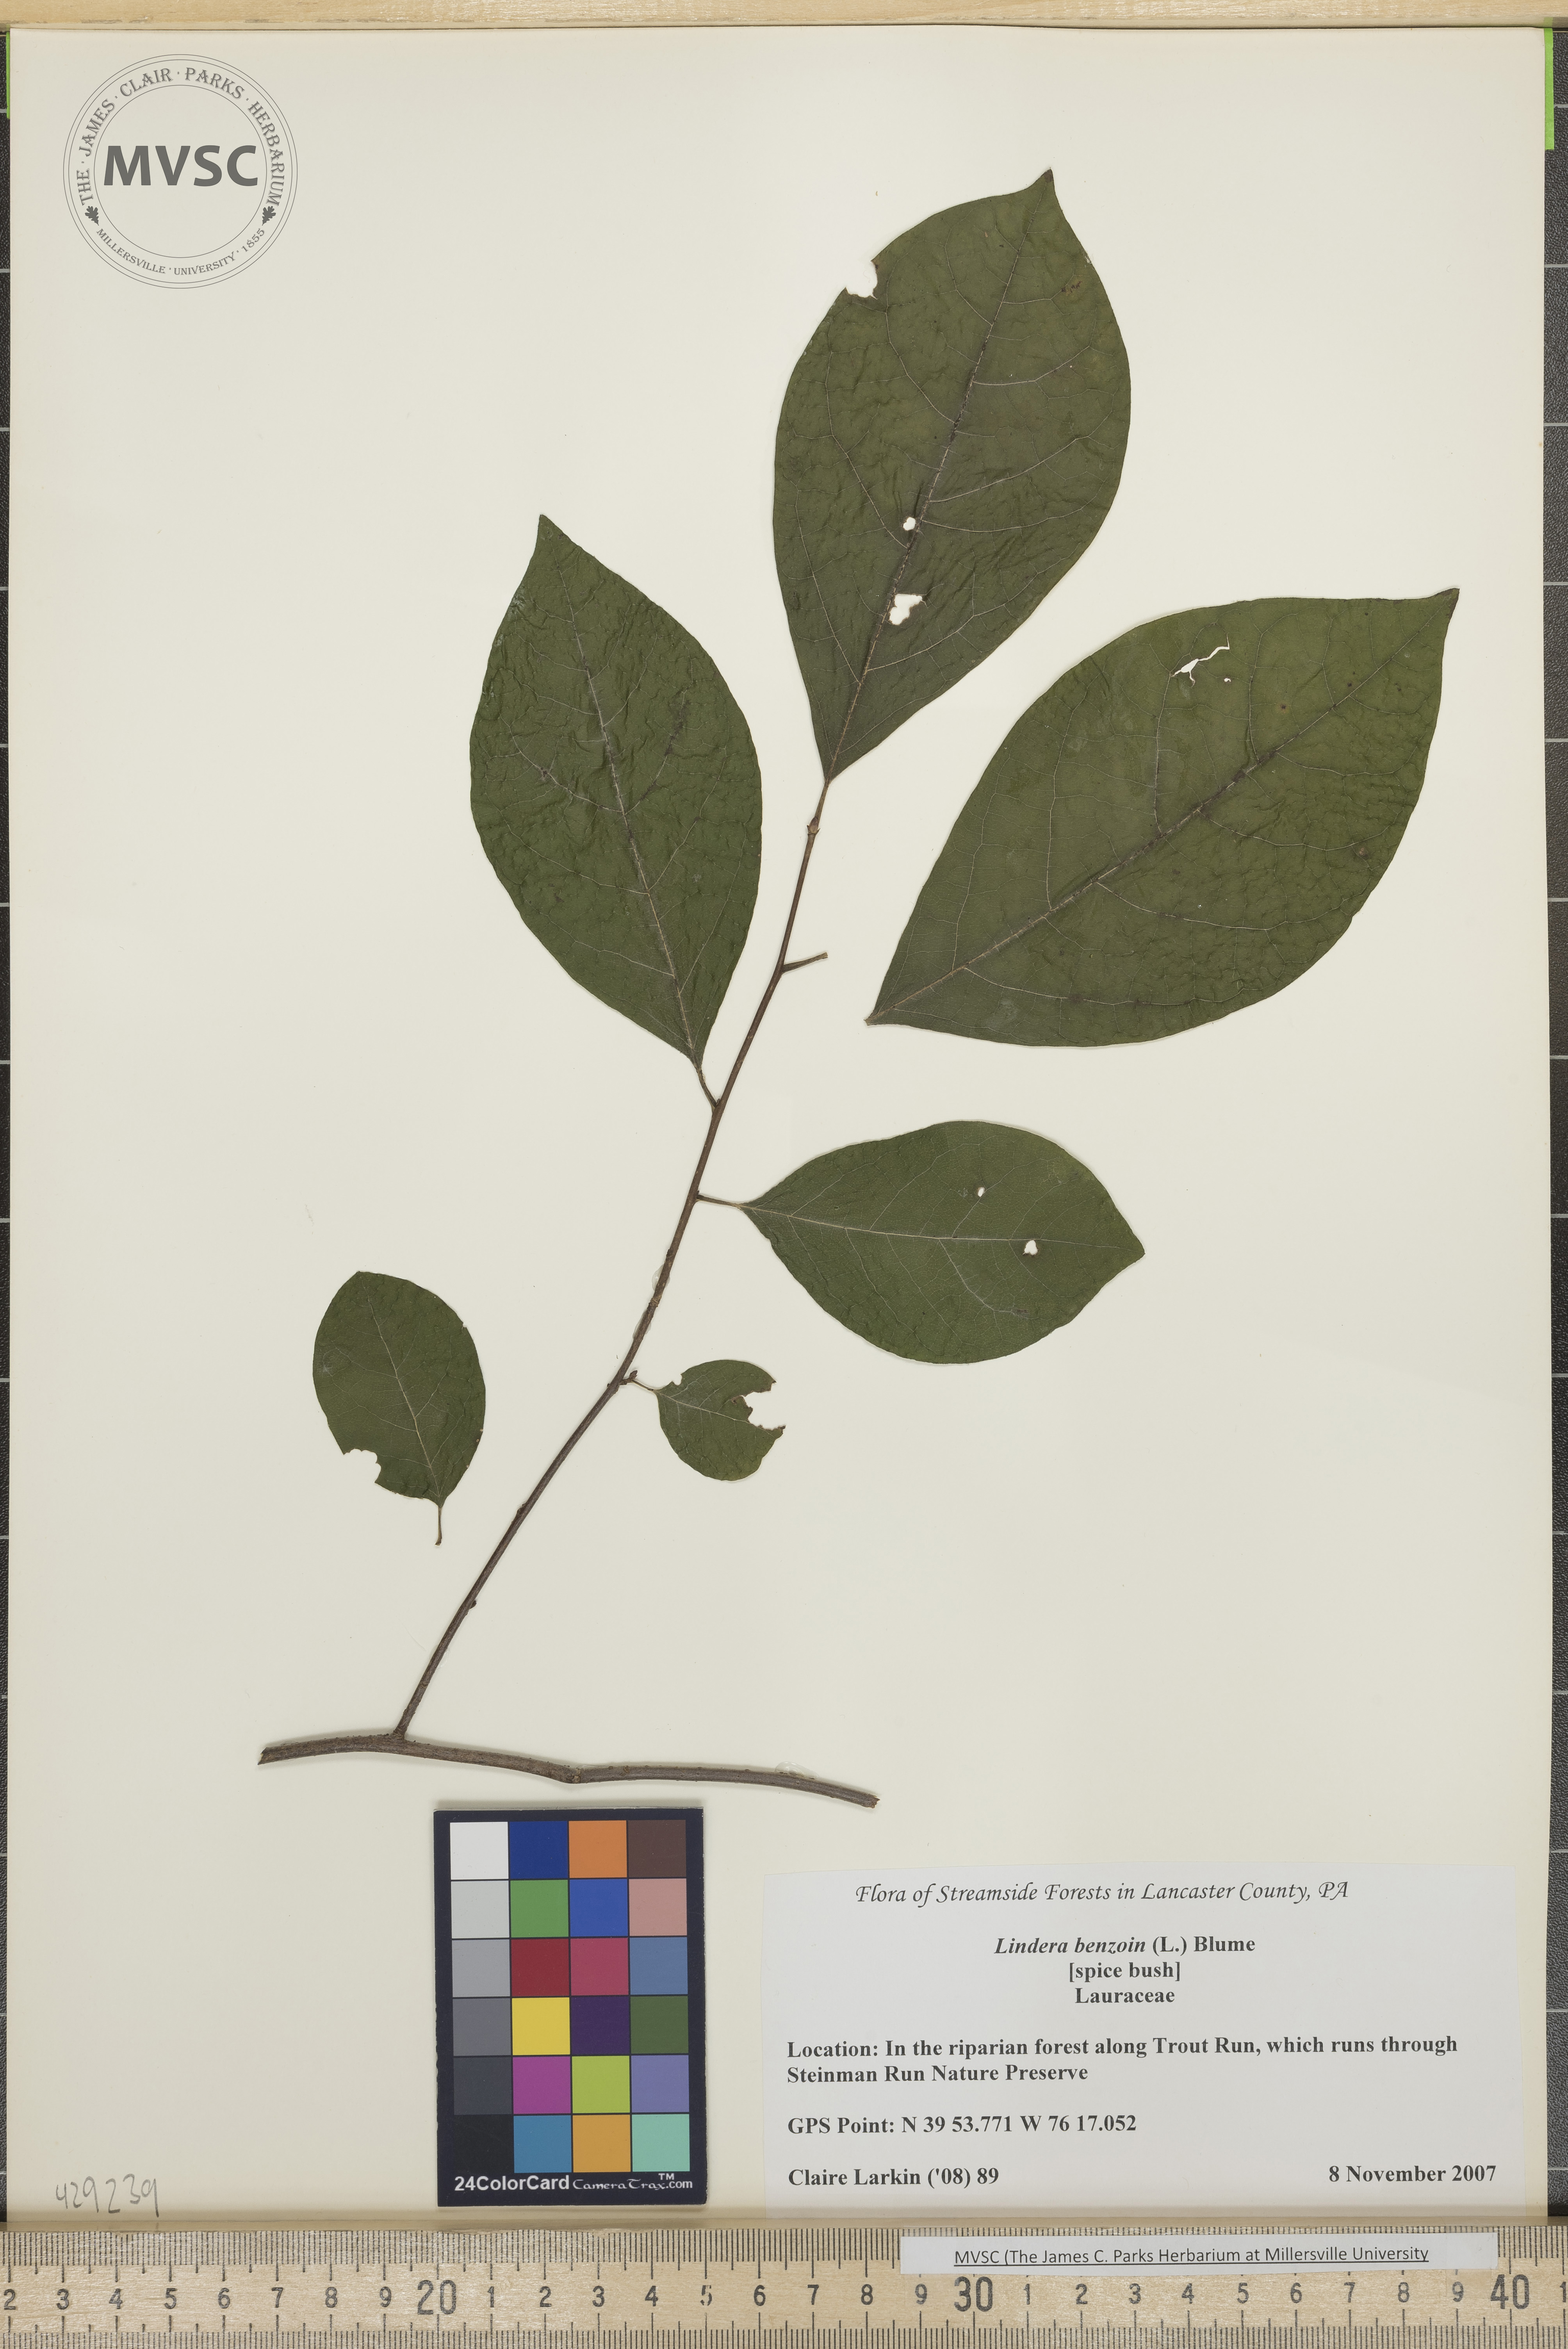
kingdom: Plantae
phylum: Tracheophyta
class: Magnoliopsida
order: Laurales
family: Lauraceae
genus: Lindera
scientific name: Lindera benzoin
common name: Spicebush
